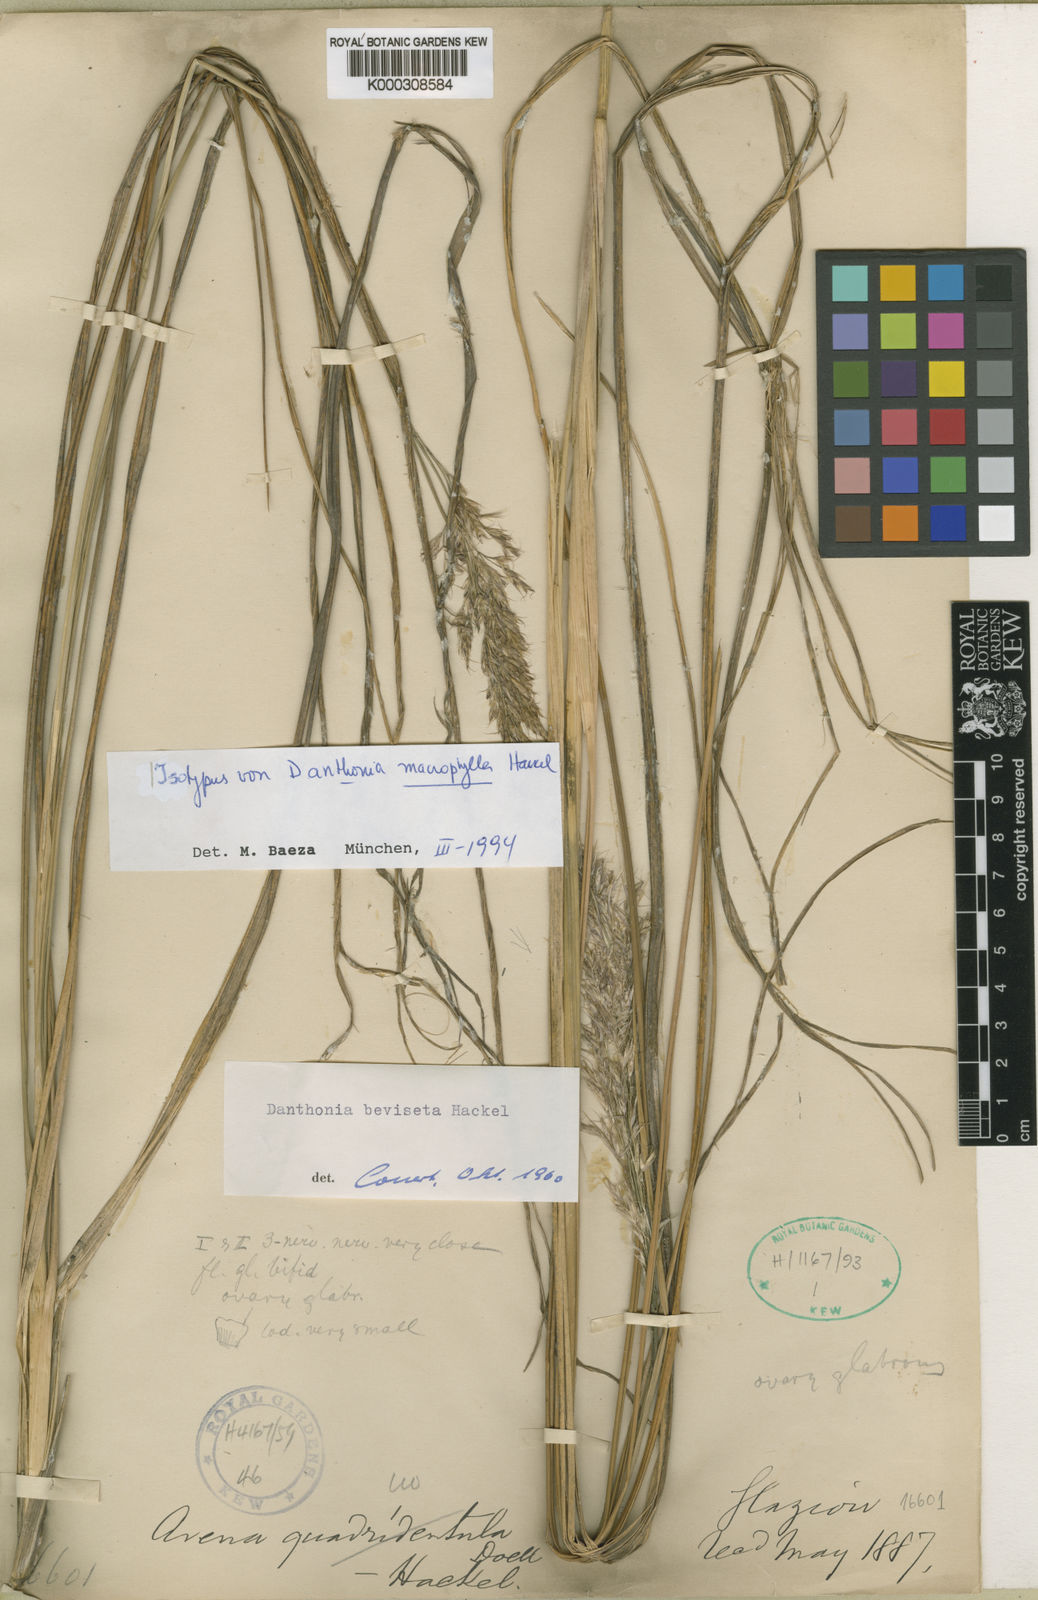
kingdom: Plantae
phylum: Tracheophyta
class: Liliopsida
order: Poales
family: Poaceae
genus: Danthonia
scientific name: Danthonia breviseta
